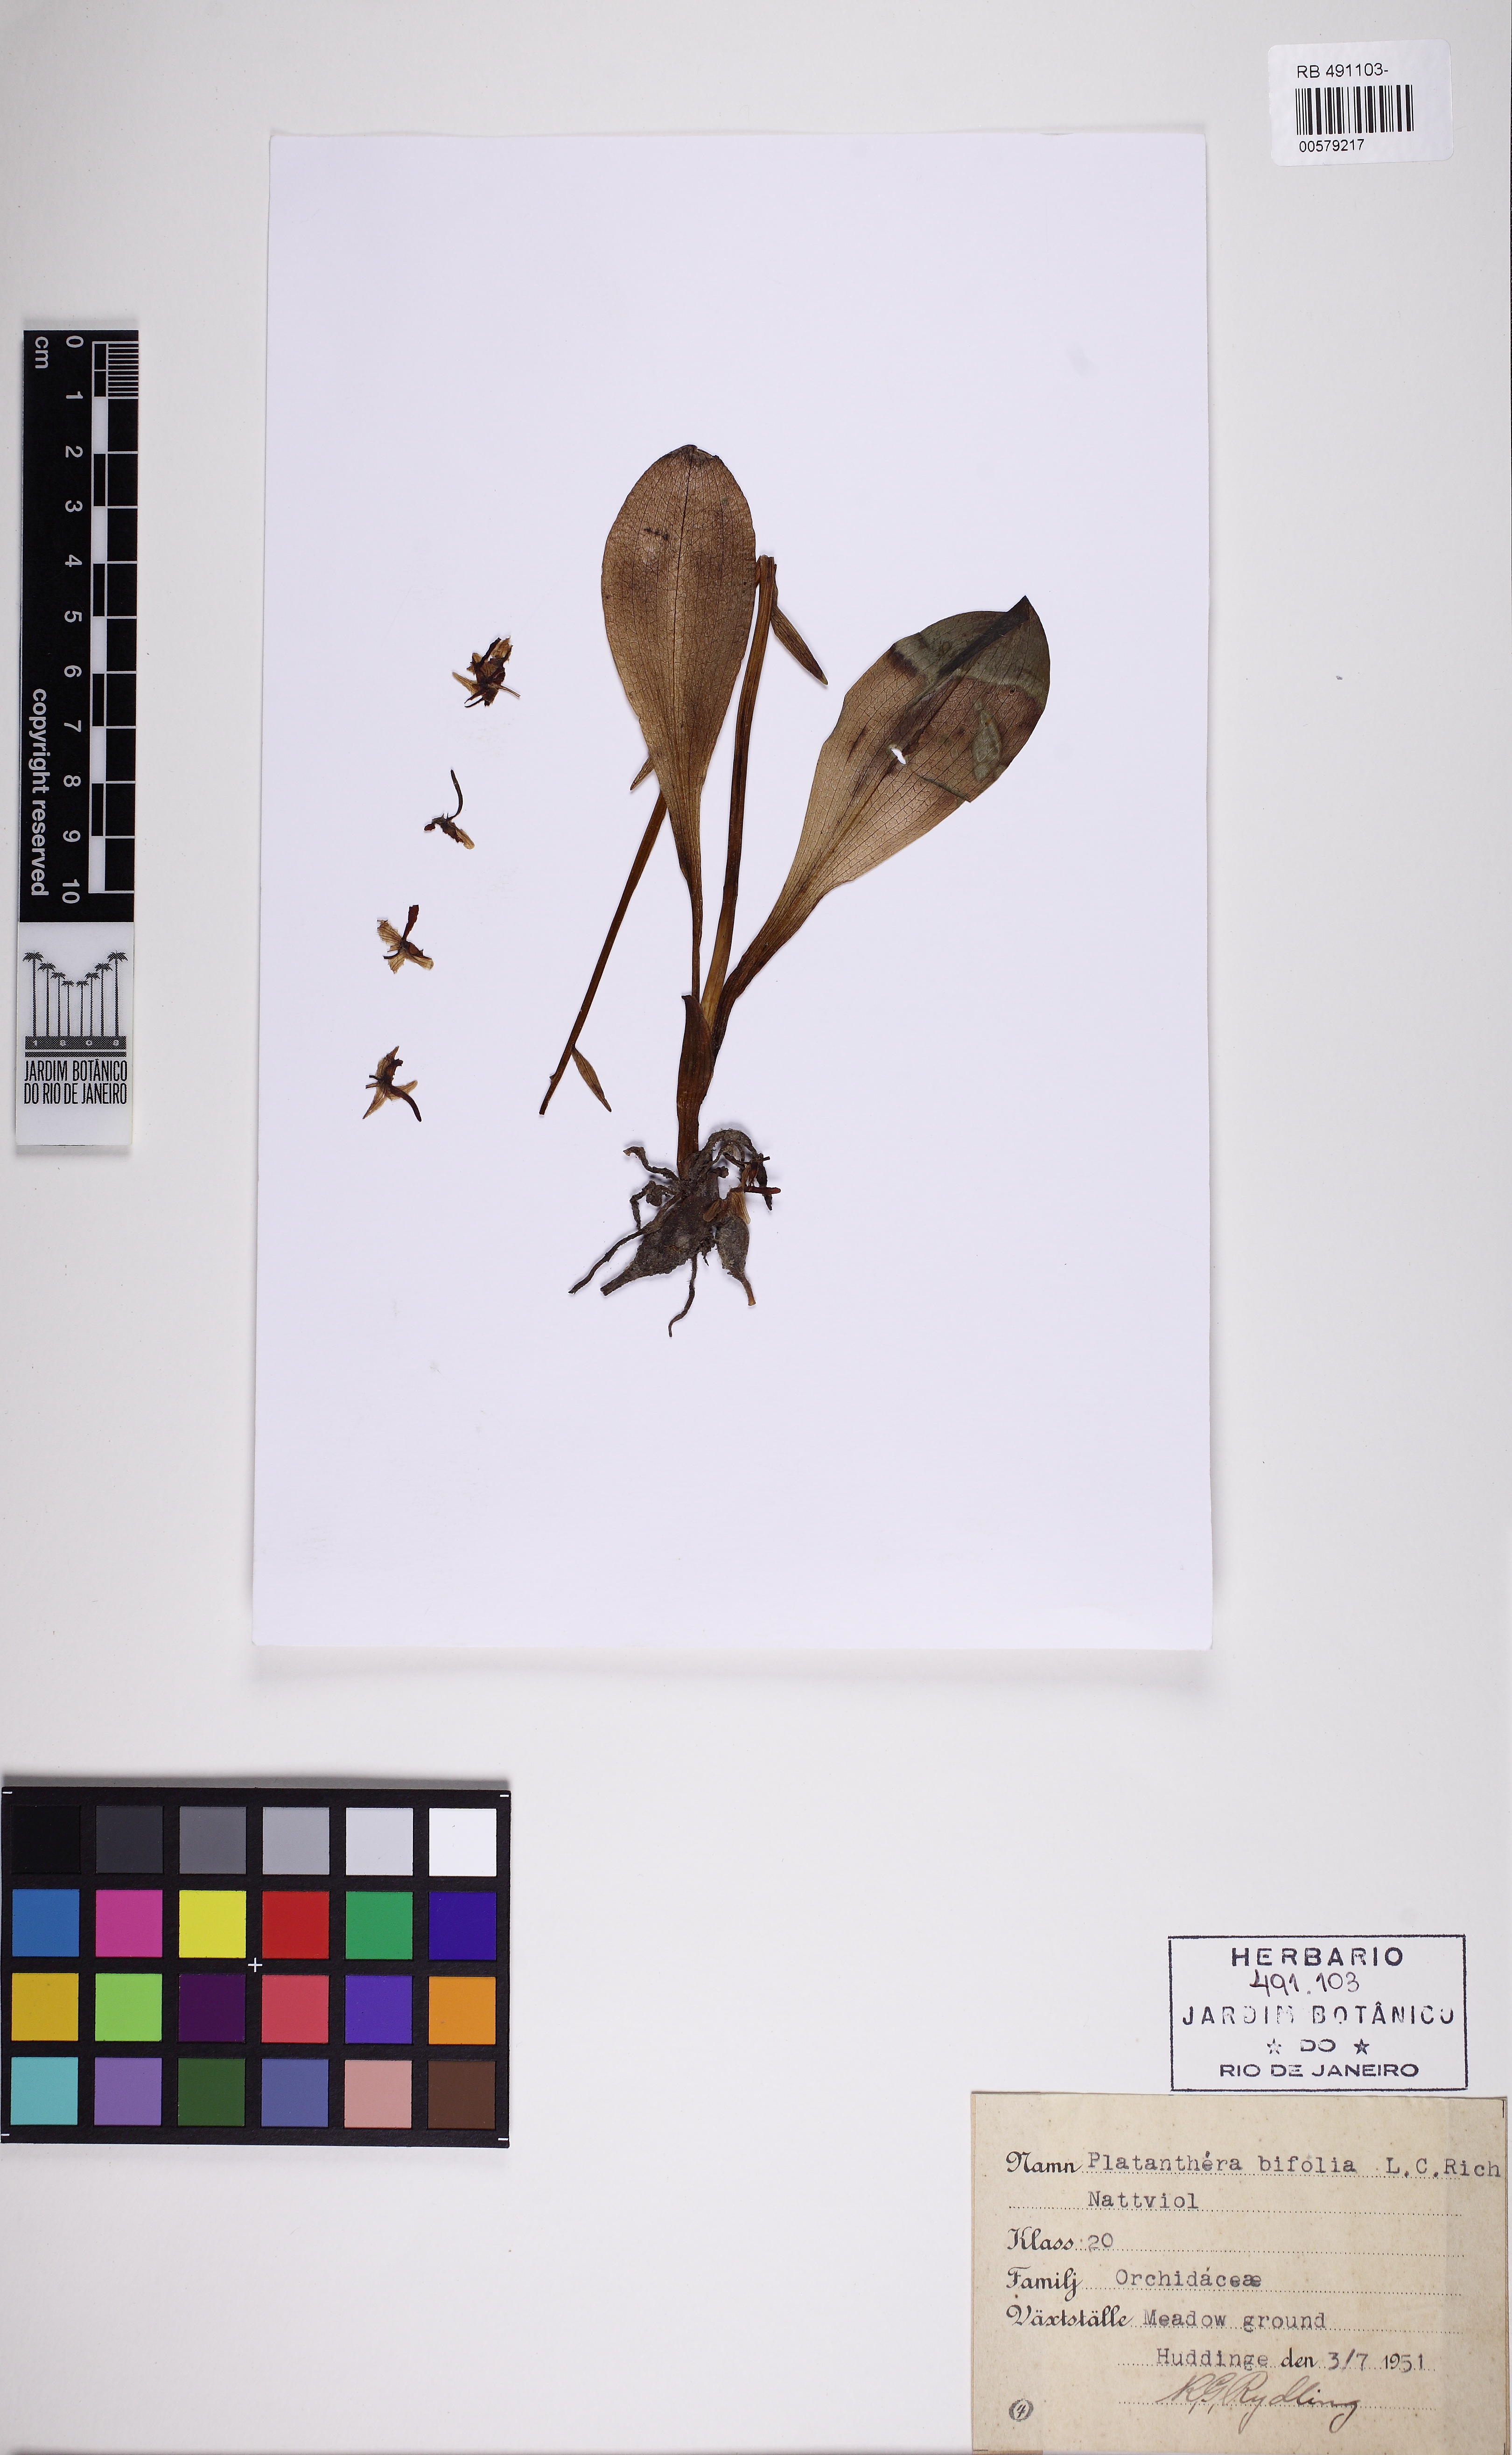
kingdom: Plantae
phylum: Tracheophyta
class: Liliopsida
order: Asparagales
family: Orchidaceae
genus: Platanthera
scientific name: Platanthera bifolia
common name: Lesser butterfly-orchid
